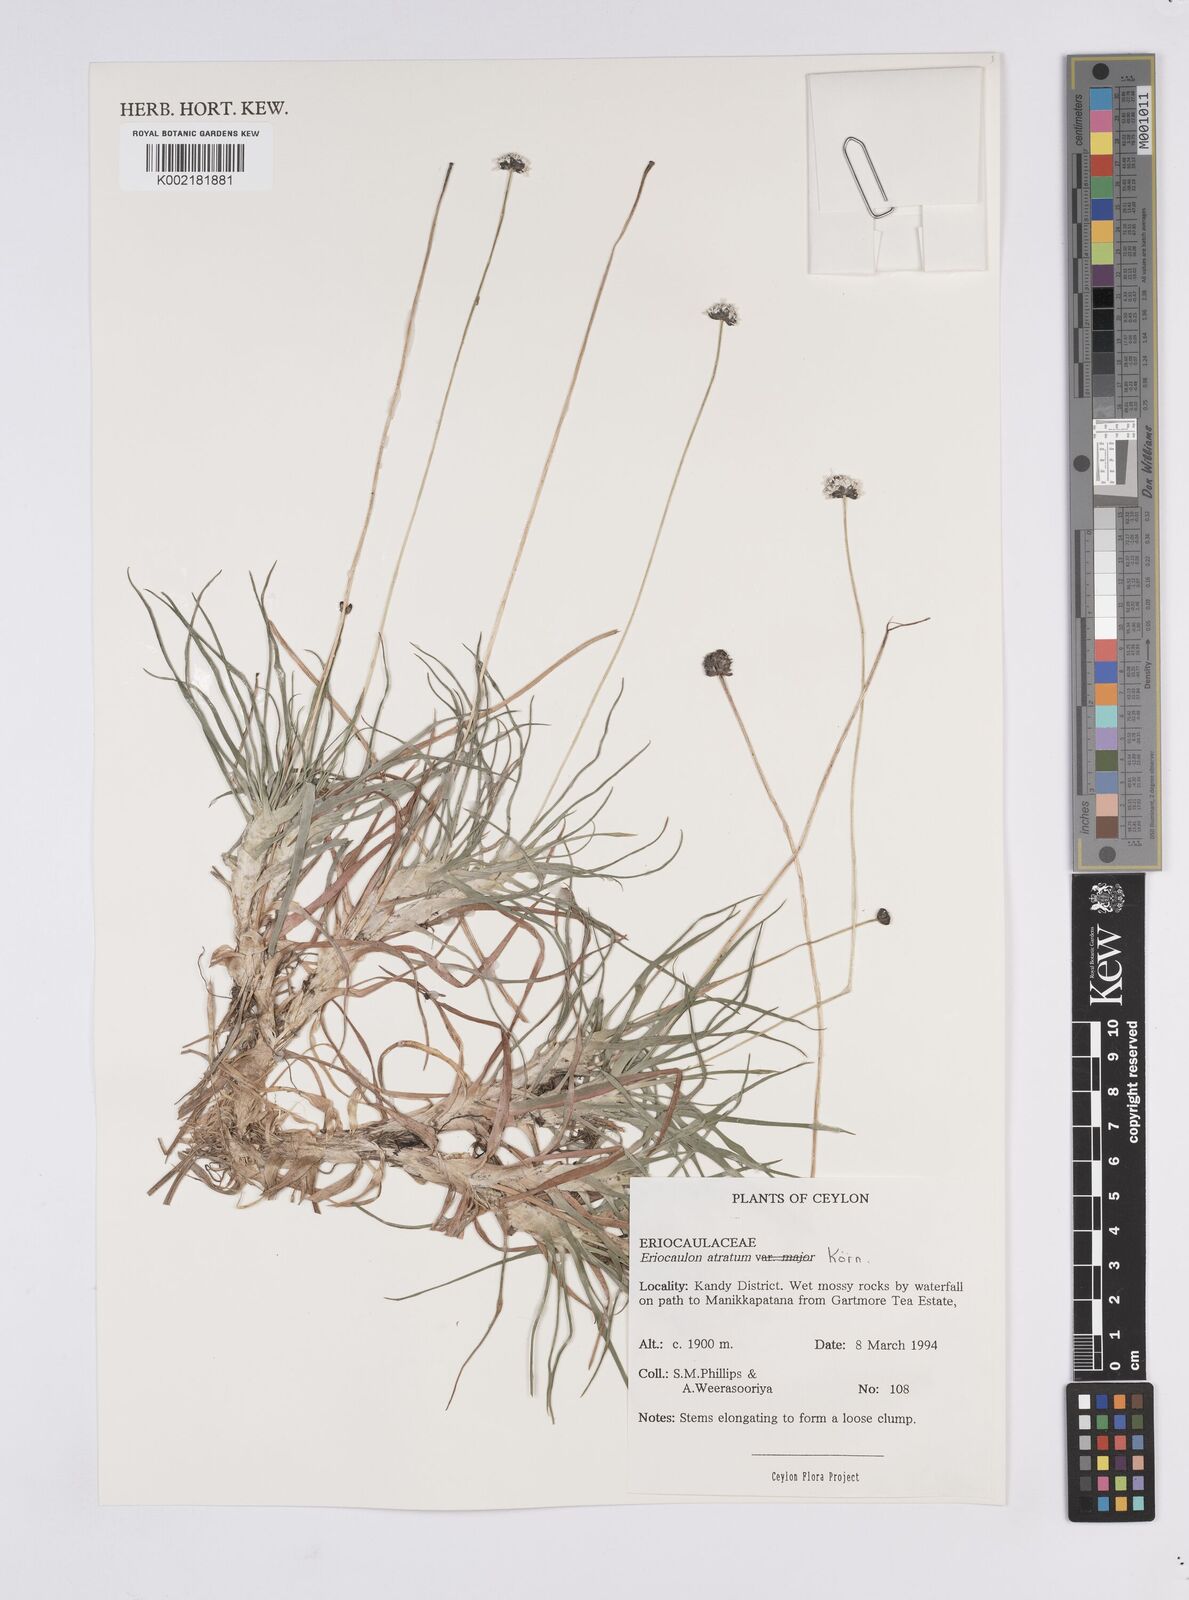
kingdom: Plantae
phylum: Tracheophyta
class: Liliopsida
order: Poales
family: Eriocaulaceae
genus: Eriocaulon
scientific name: Eriocaulon atratum
